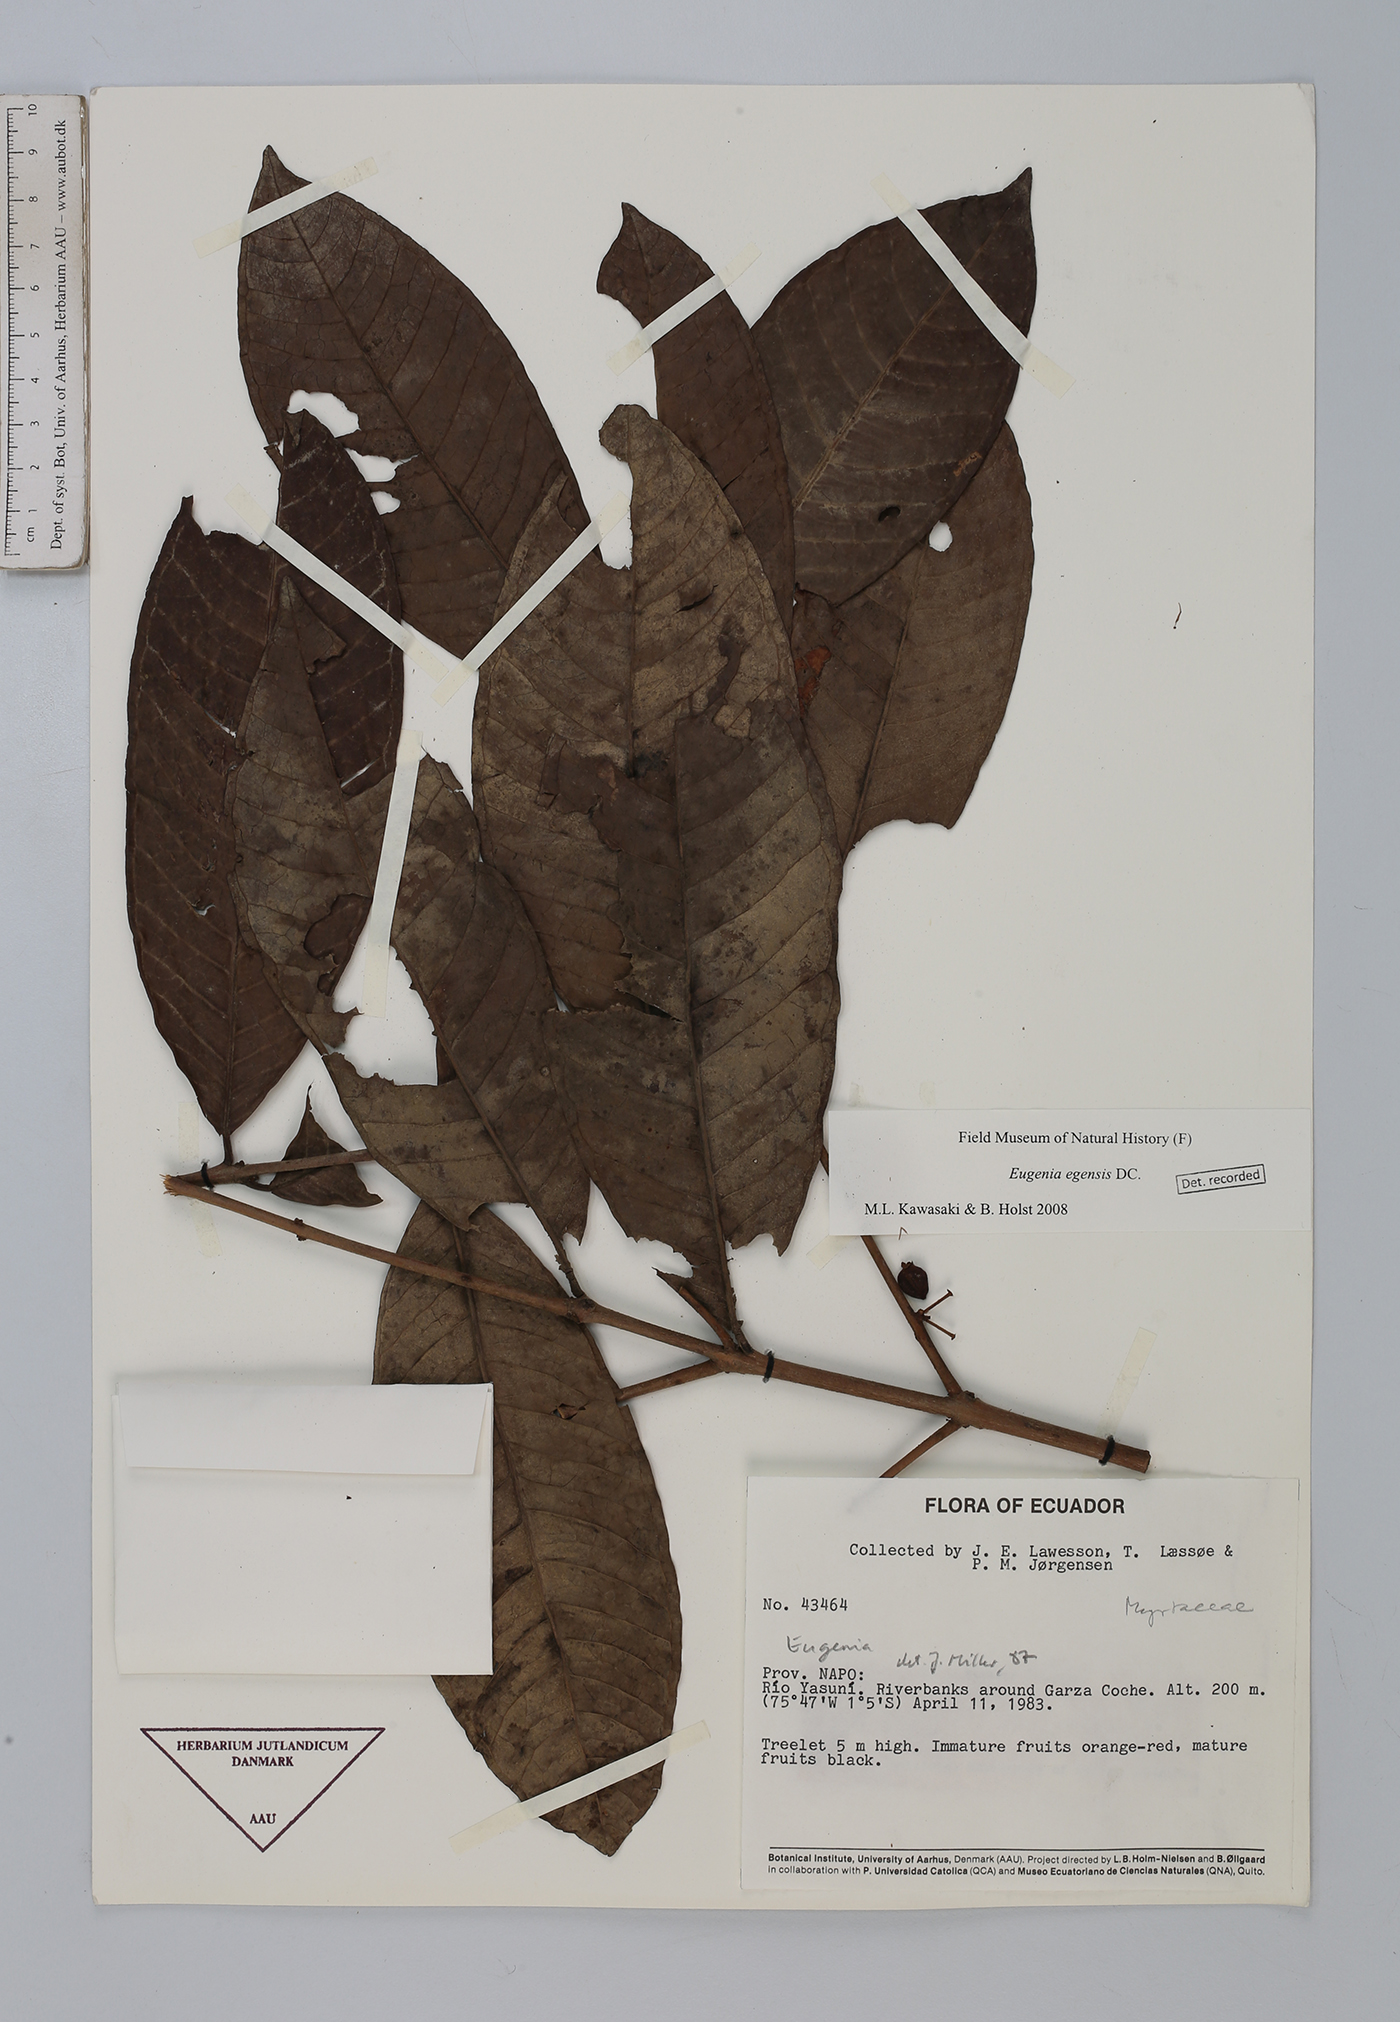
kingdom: Plantae
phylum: Tracheophyta
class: Magnoliopsida
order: Myrtales
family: Myrtaceae
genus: Eugenia
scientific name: Eugenia egensis
